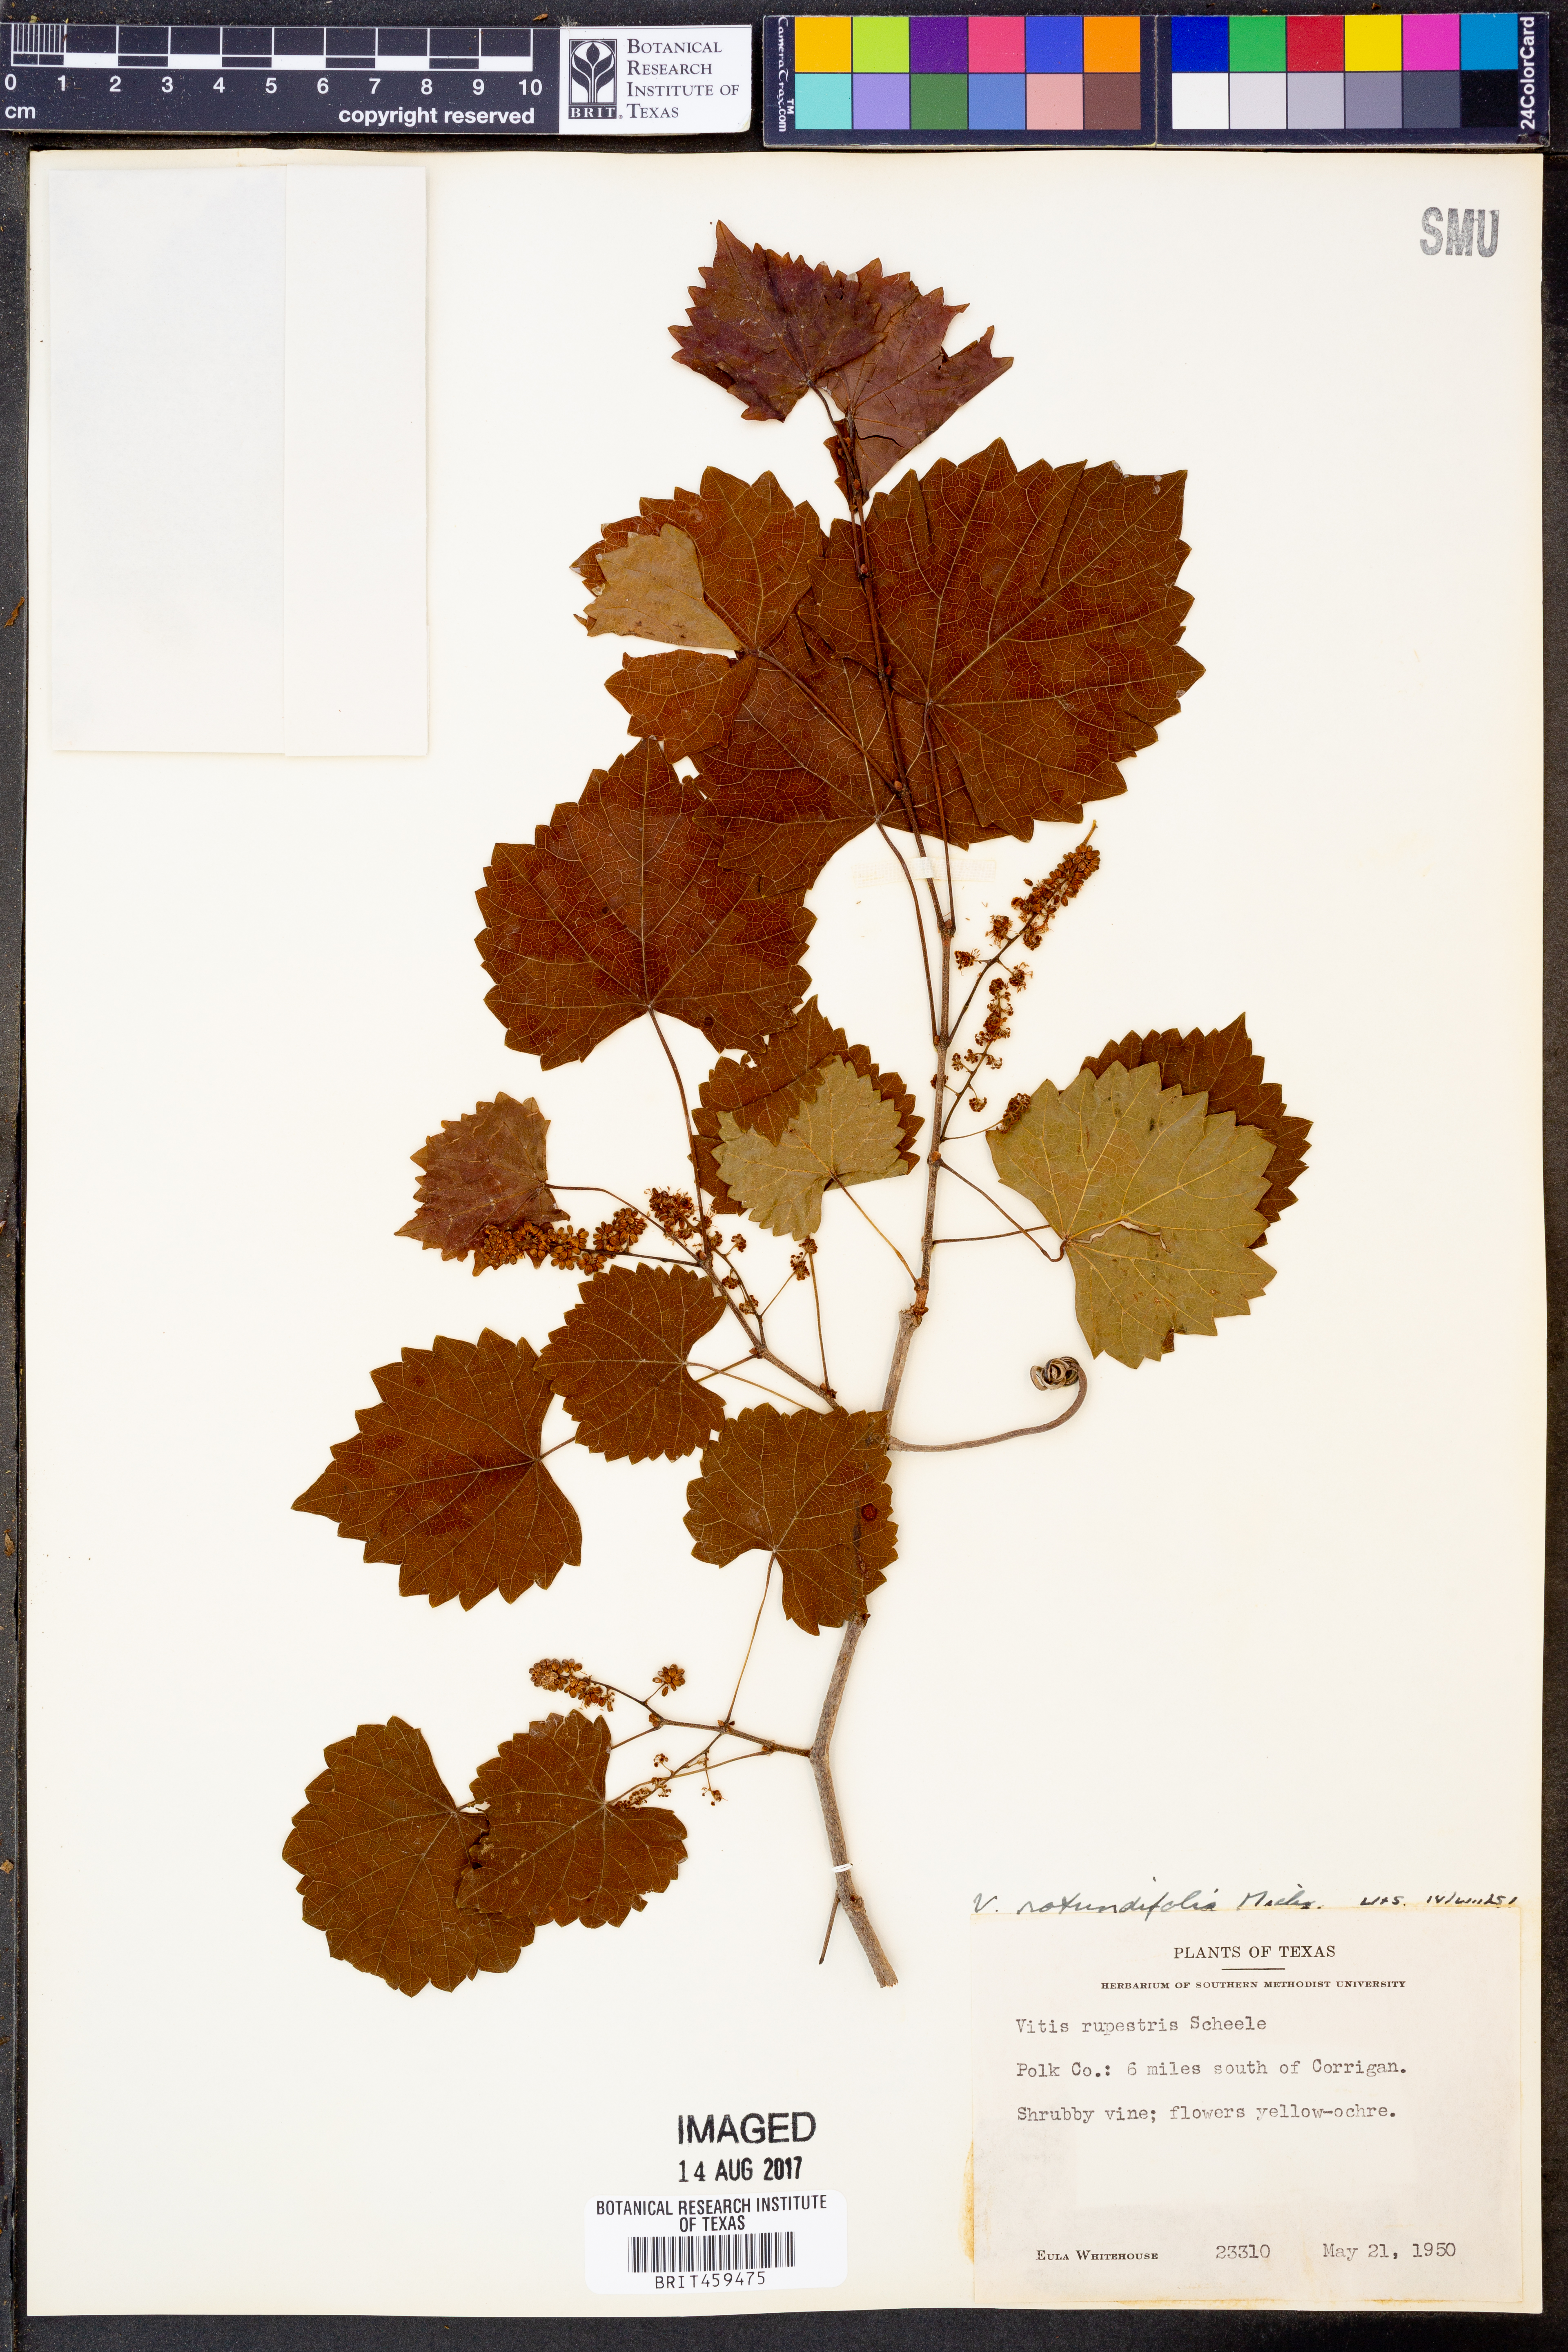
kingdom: Plantae
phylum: Tracheophyta
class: Magnoliopsida
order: Vitales
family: Vitaceae
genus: Vitis
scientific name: Vitis rotundifolia
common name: Muscadine grape
